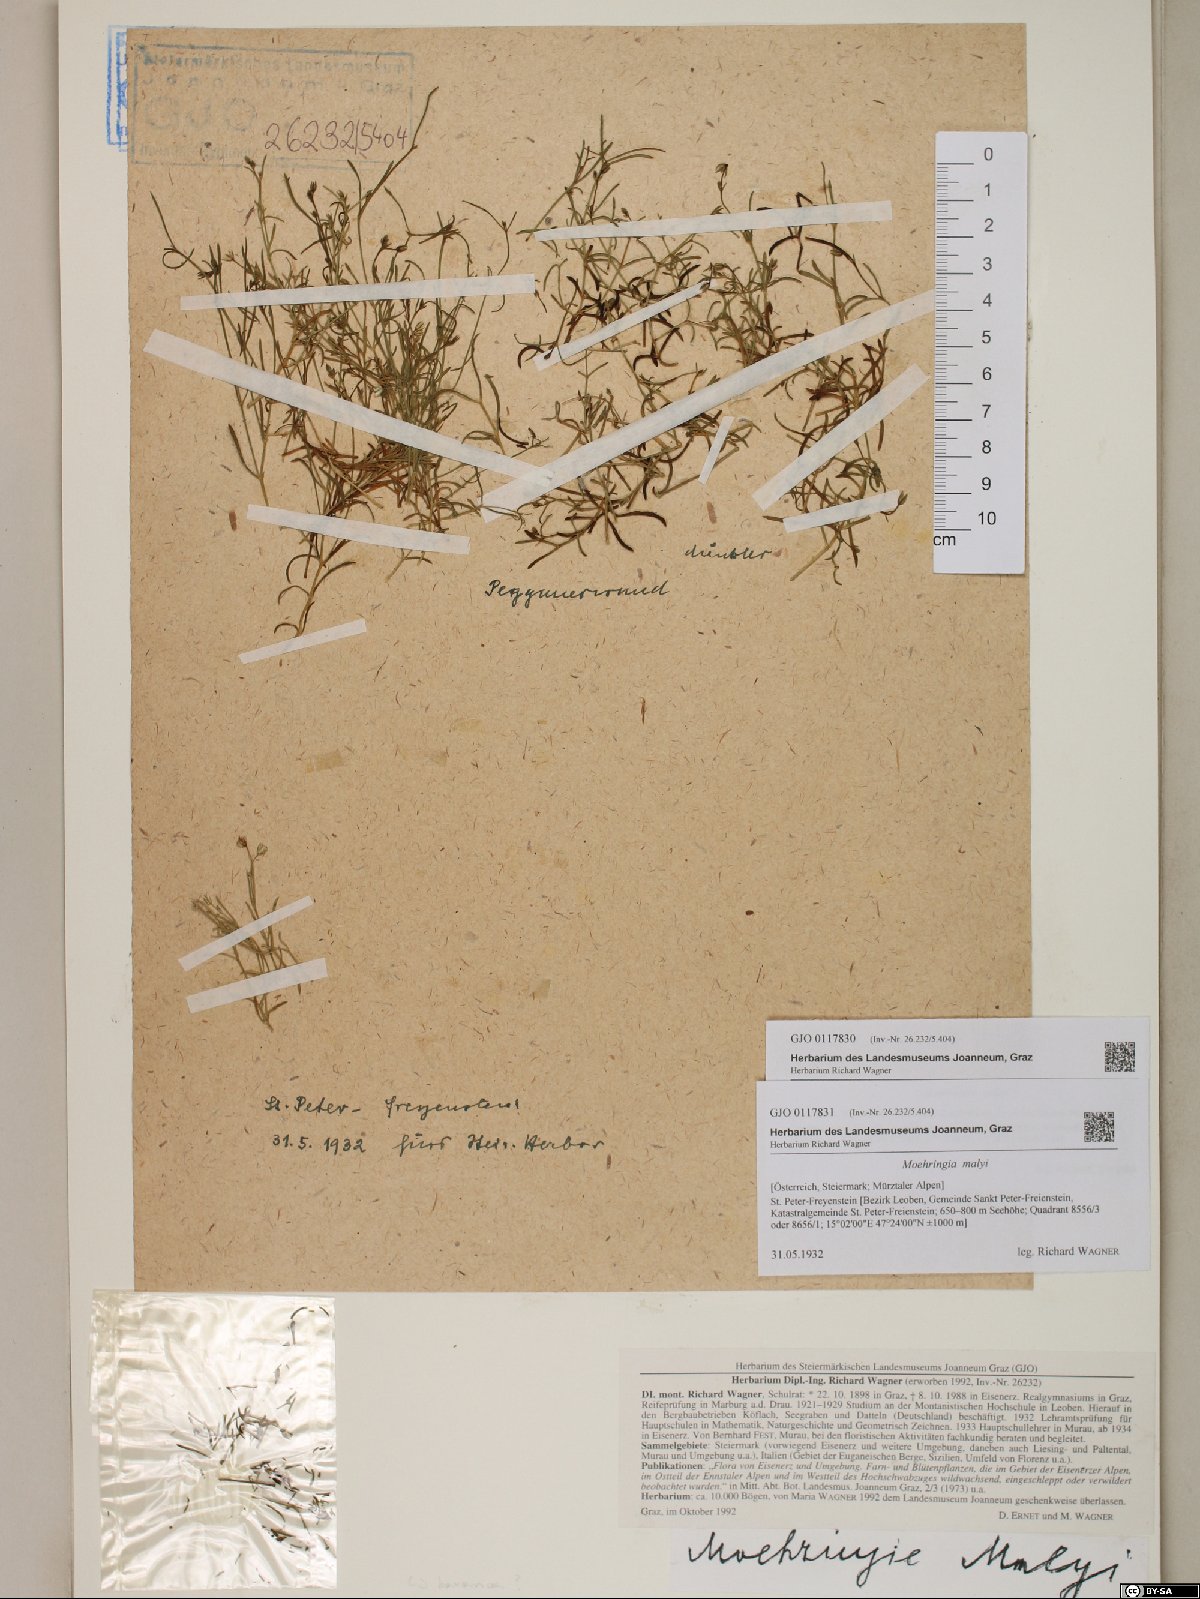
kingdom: Plantae
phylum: Tracheophyta
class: Magnoliopsida
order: Caryophyllales
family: Caryophyllaceae
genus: Moehringia
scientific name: Moehringia bavarica
